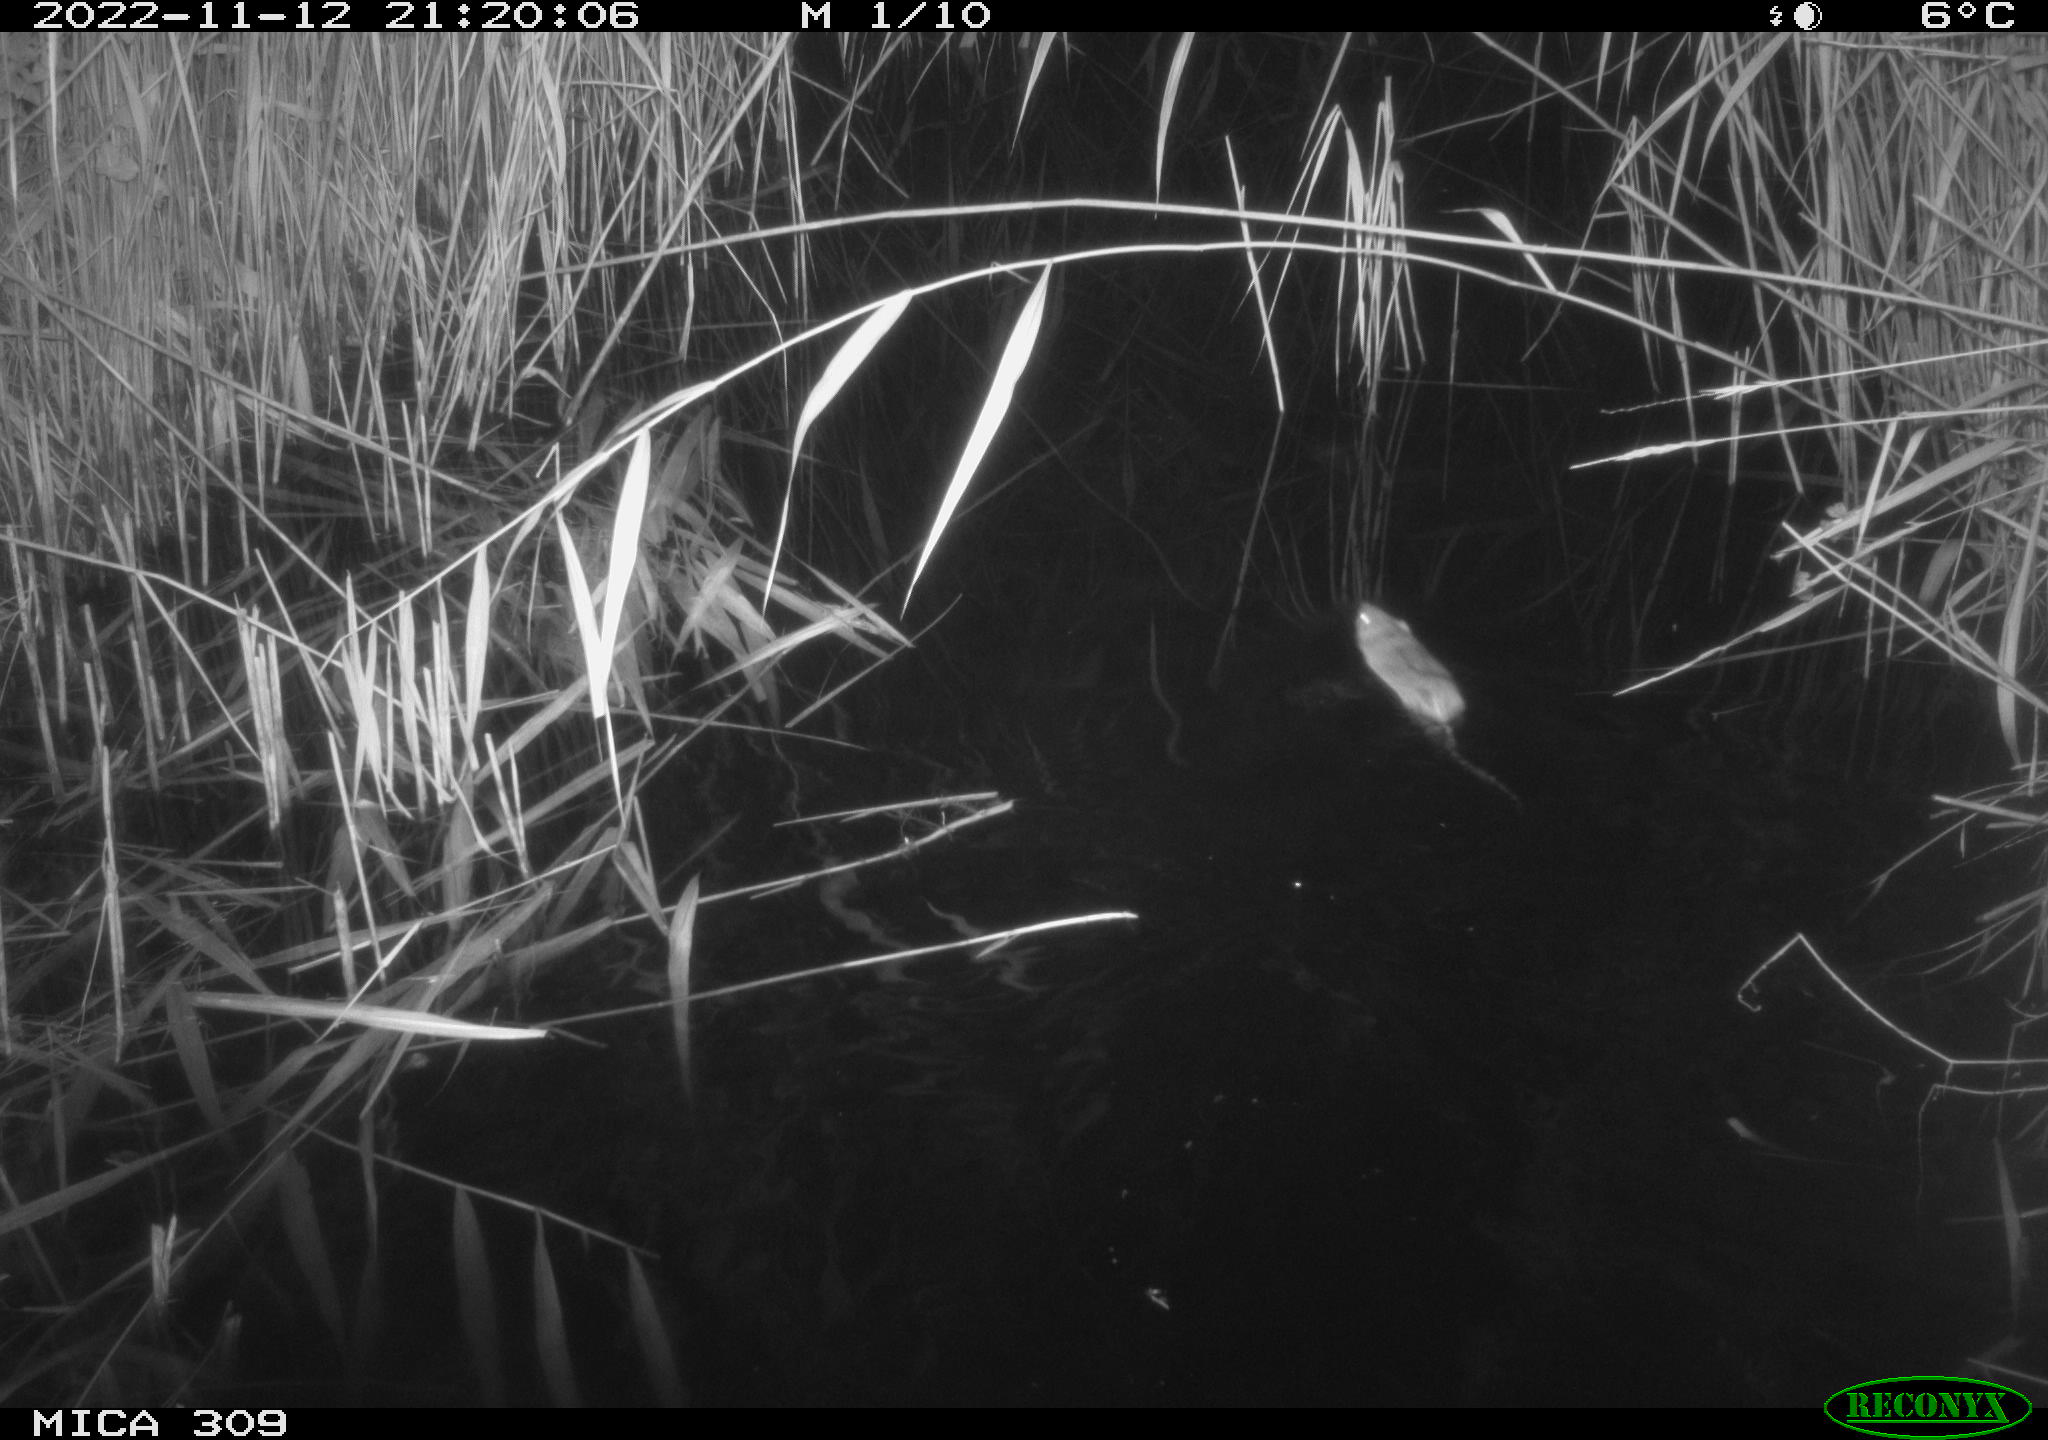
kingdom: Animalia
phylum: Chordata
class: Mammalia
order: Rodentia
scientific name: Rodentia
